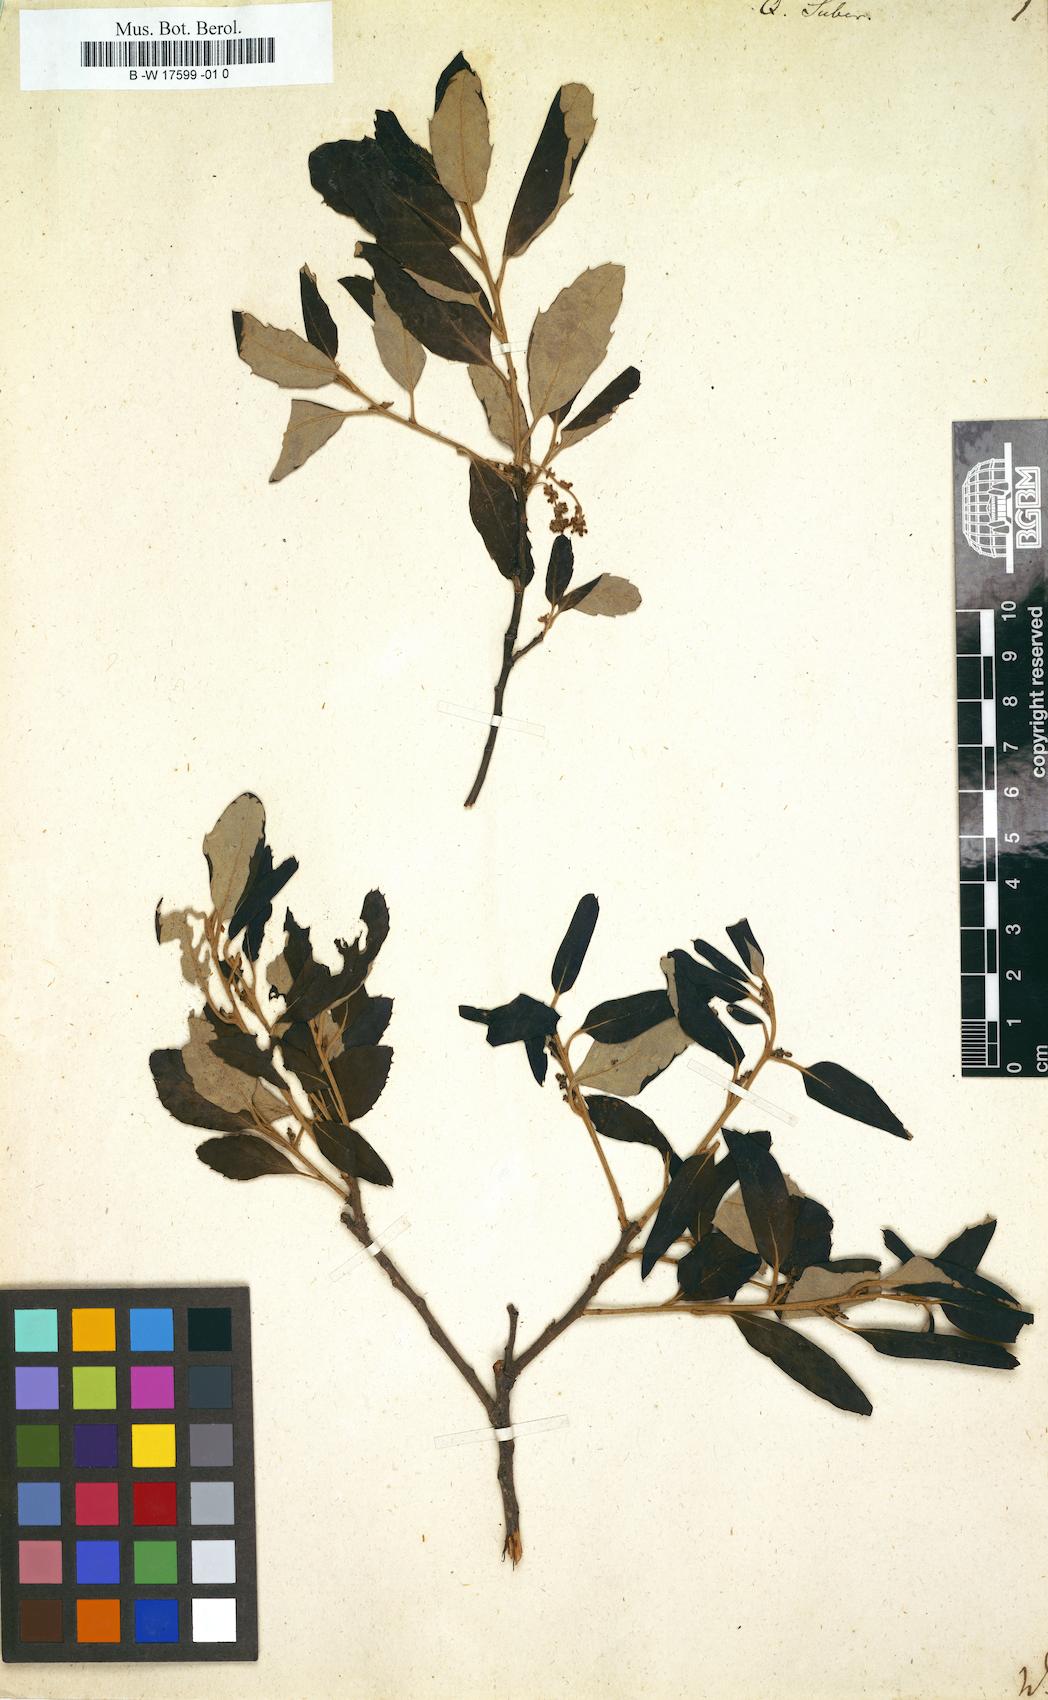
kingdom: Plantae
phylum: Tracheophyta
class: Magnoliopsida
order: Fagales
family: Fagaceae
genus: Quercus
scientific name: Quercus suber
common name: Cork oak
